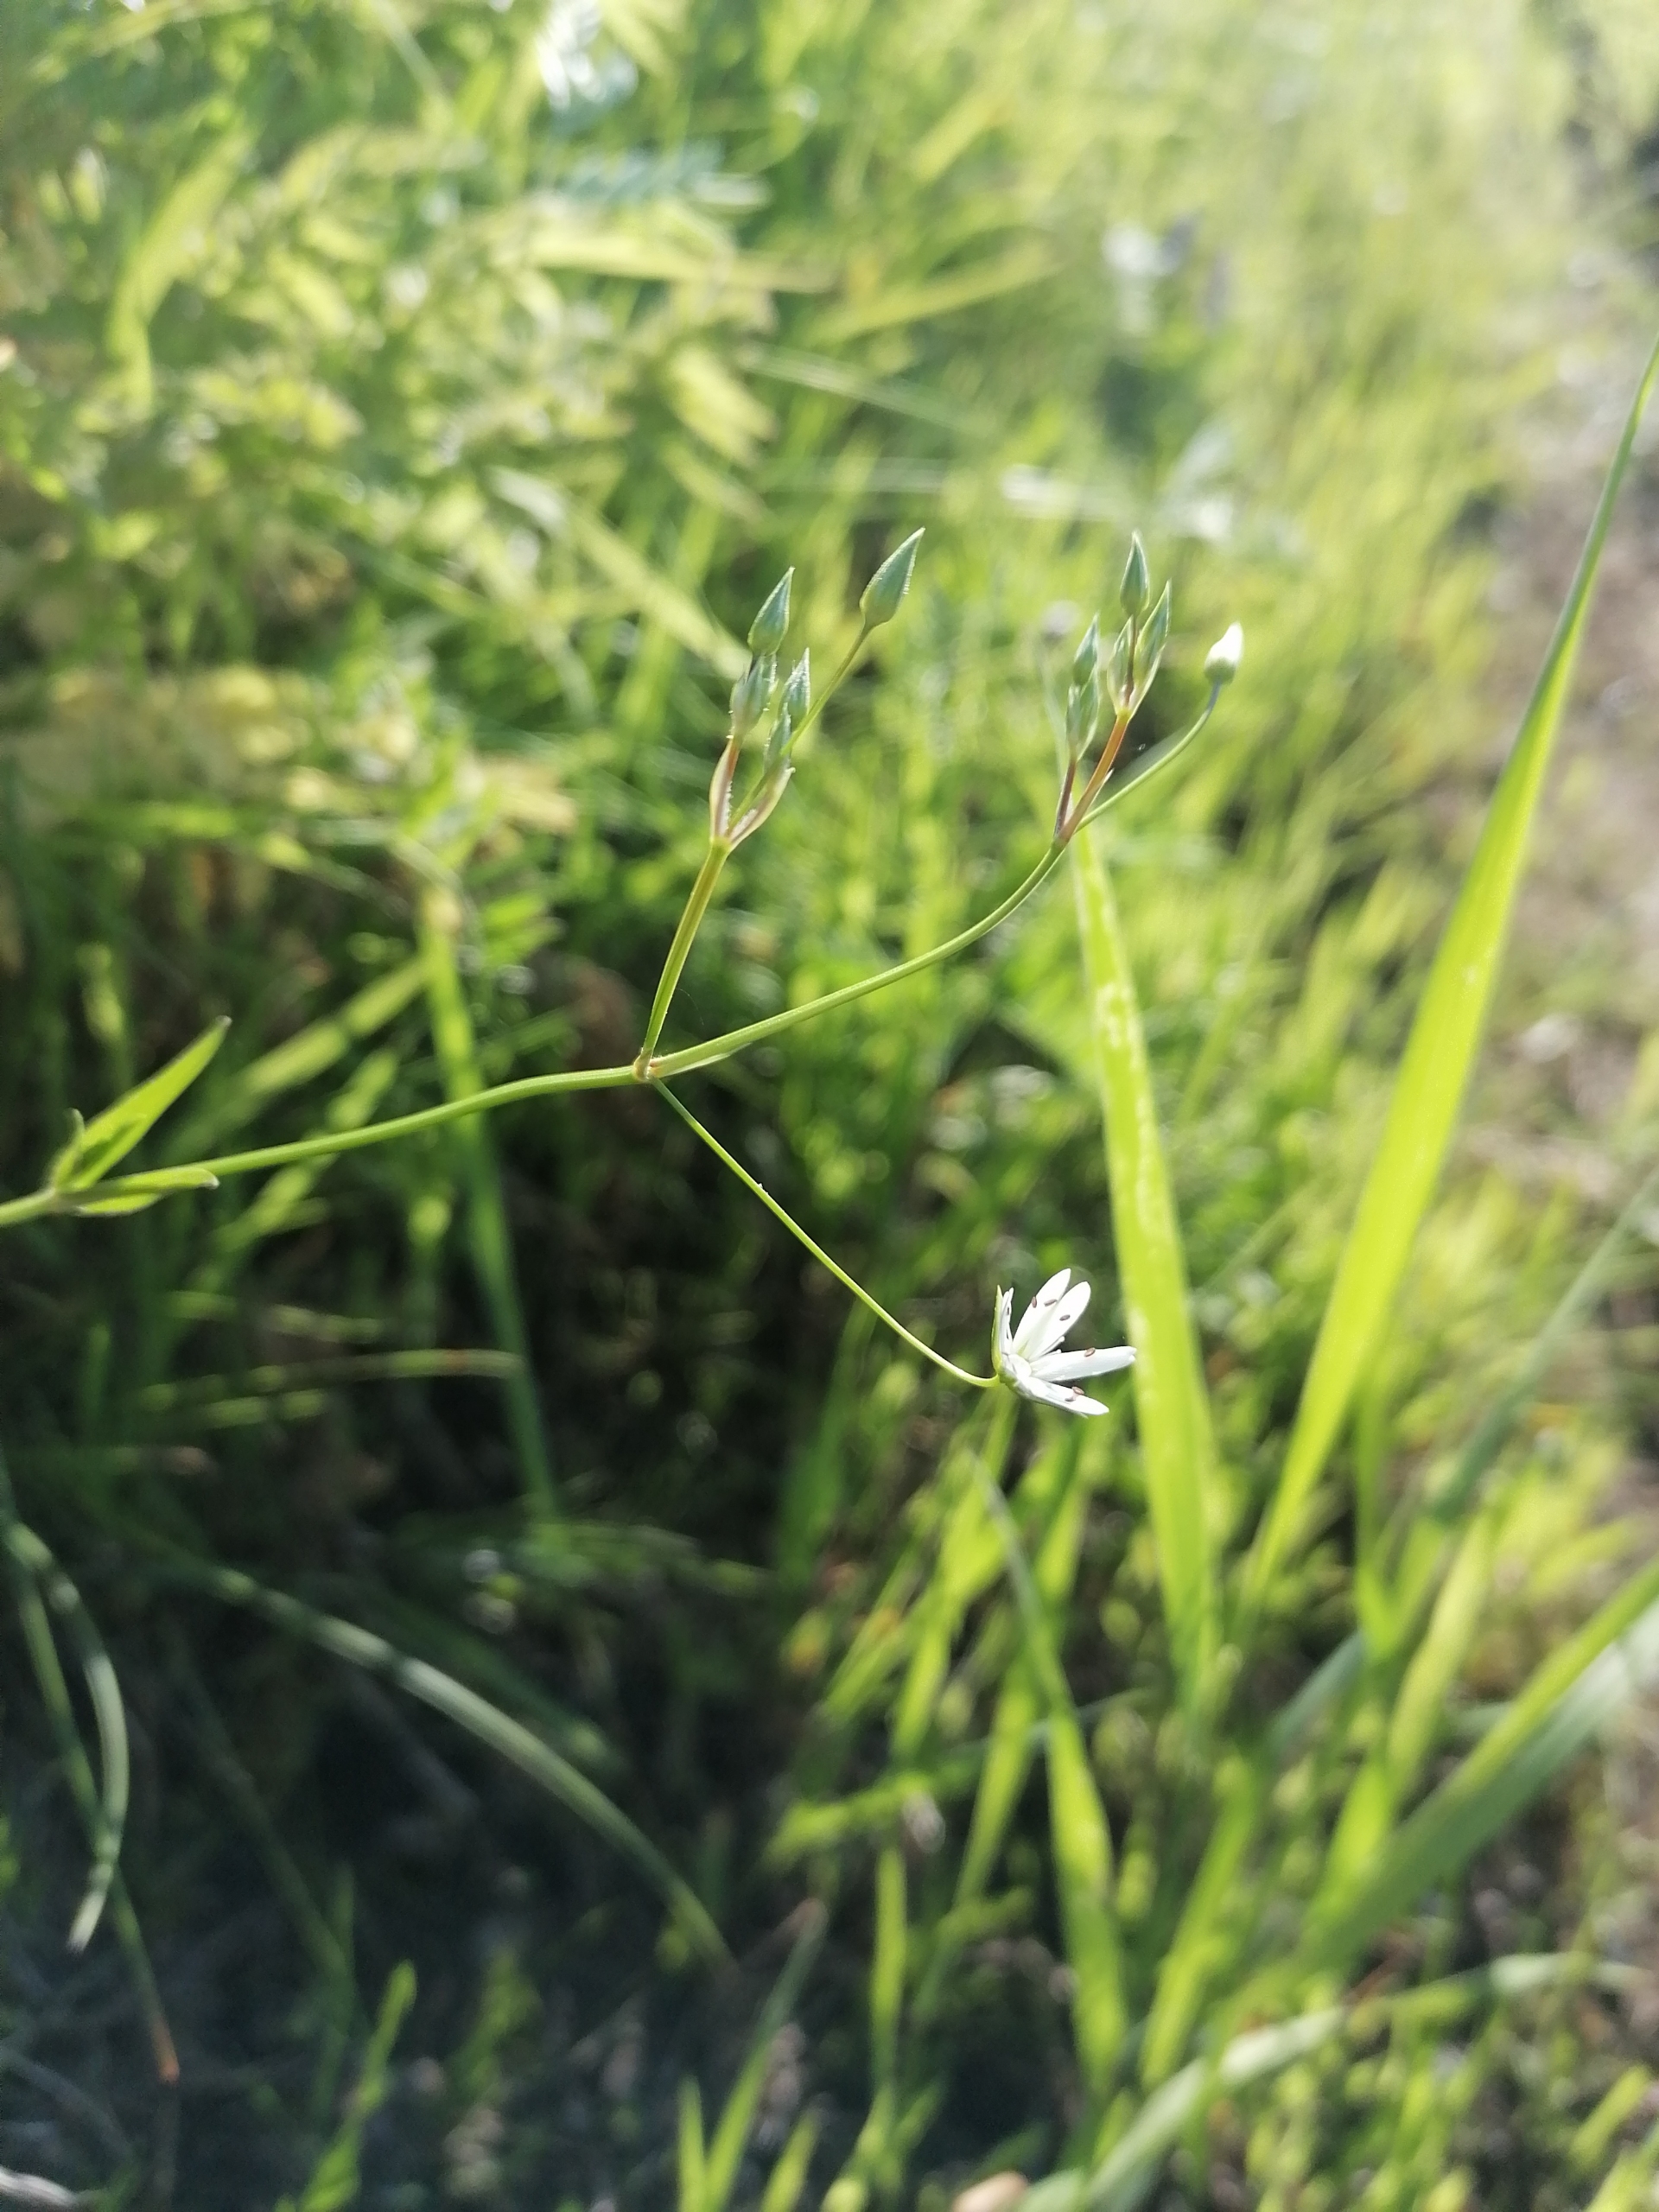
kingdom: Plantae
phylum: Tracheophyta
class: Magnoliopsida
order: Caryophyllales
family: Caryophyllaceae
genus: Stellaria
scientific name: Stellaria graminea
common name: Græsbladet fladstjerne
